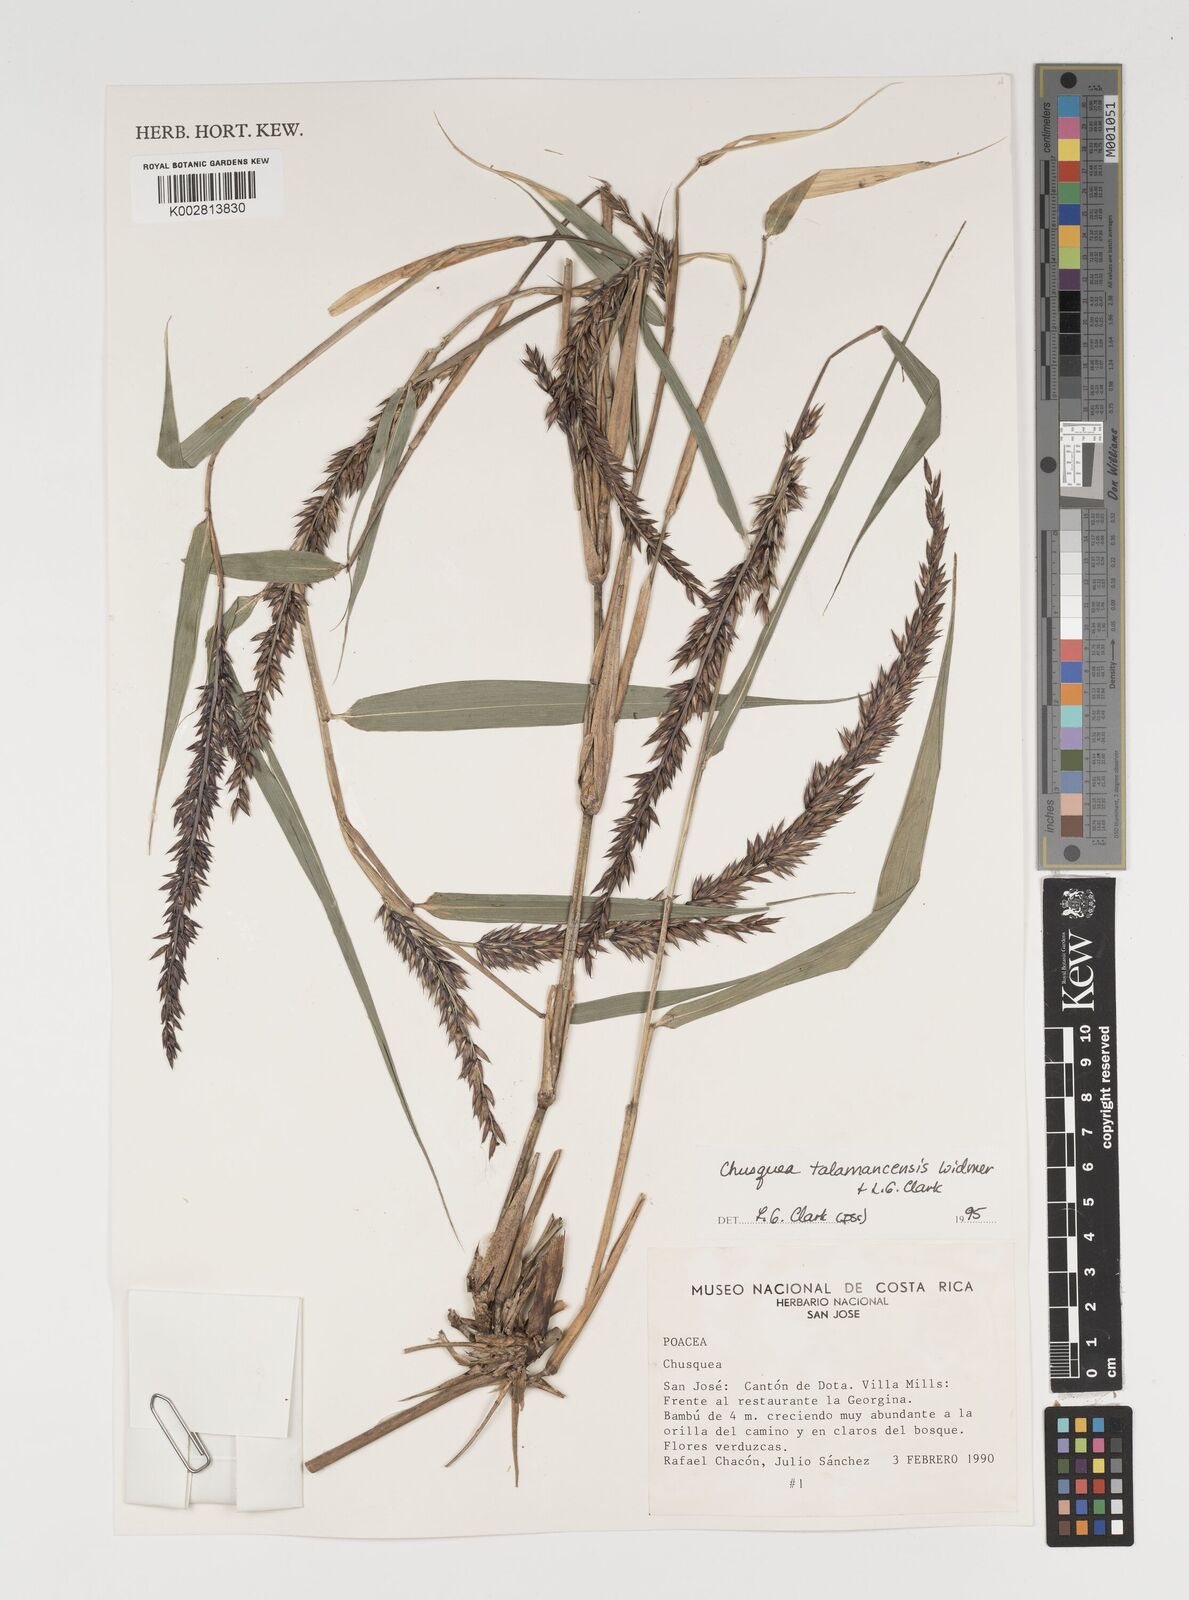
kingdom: Plantae
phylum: Tracheophyta
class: Liliopsida
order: Poales
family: Poaceae
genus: Chusquea
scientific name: Chusquea talamancensis
